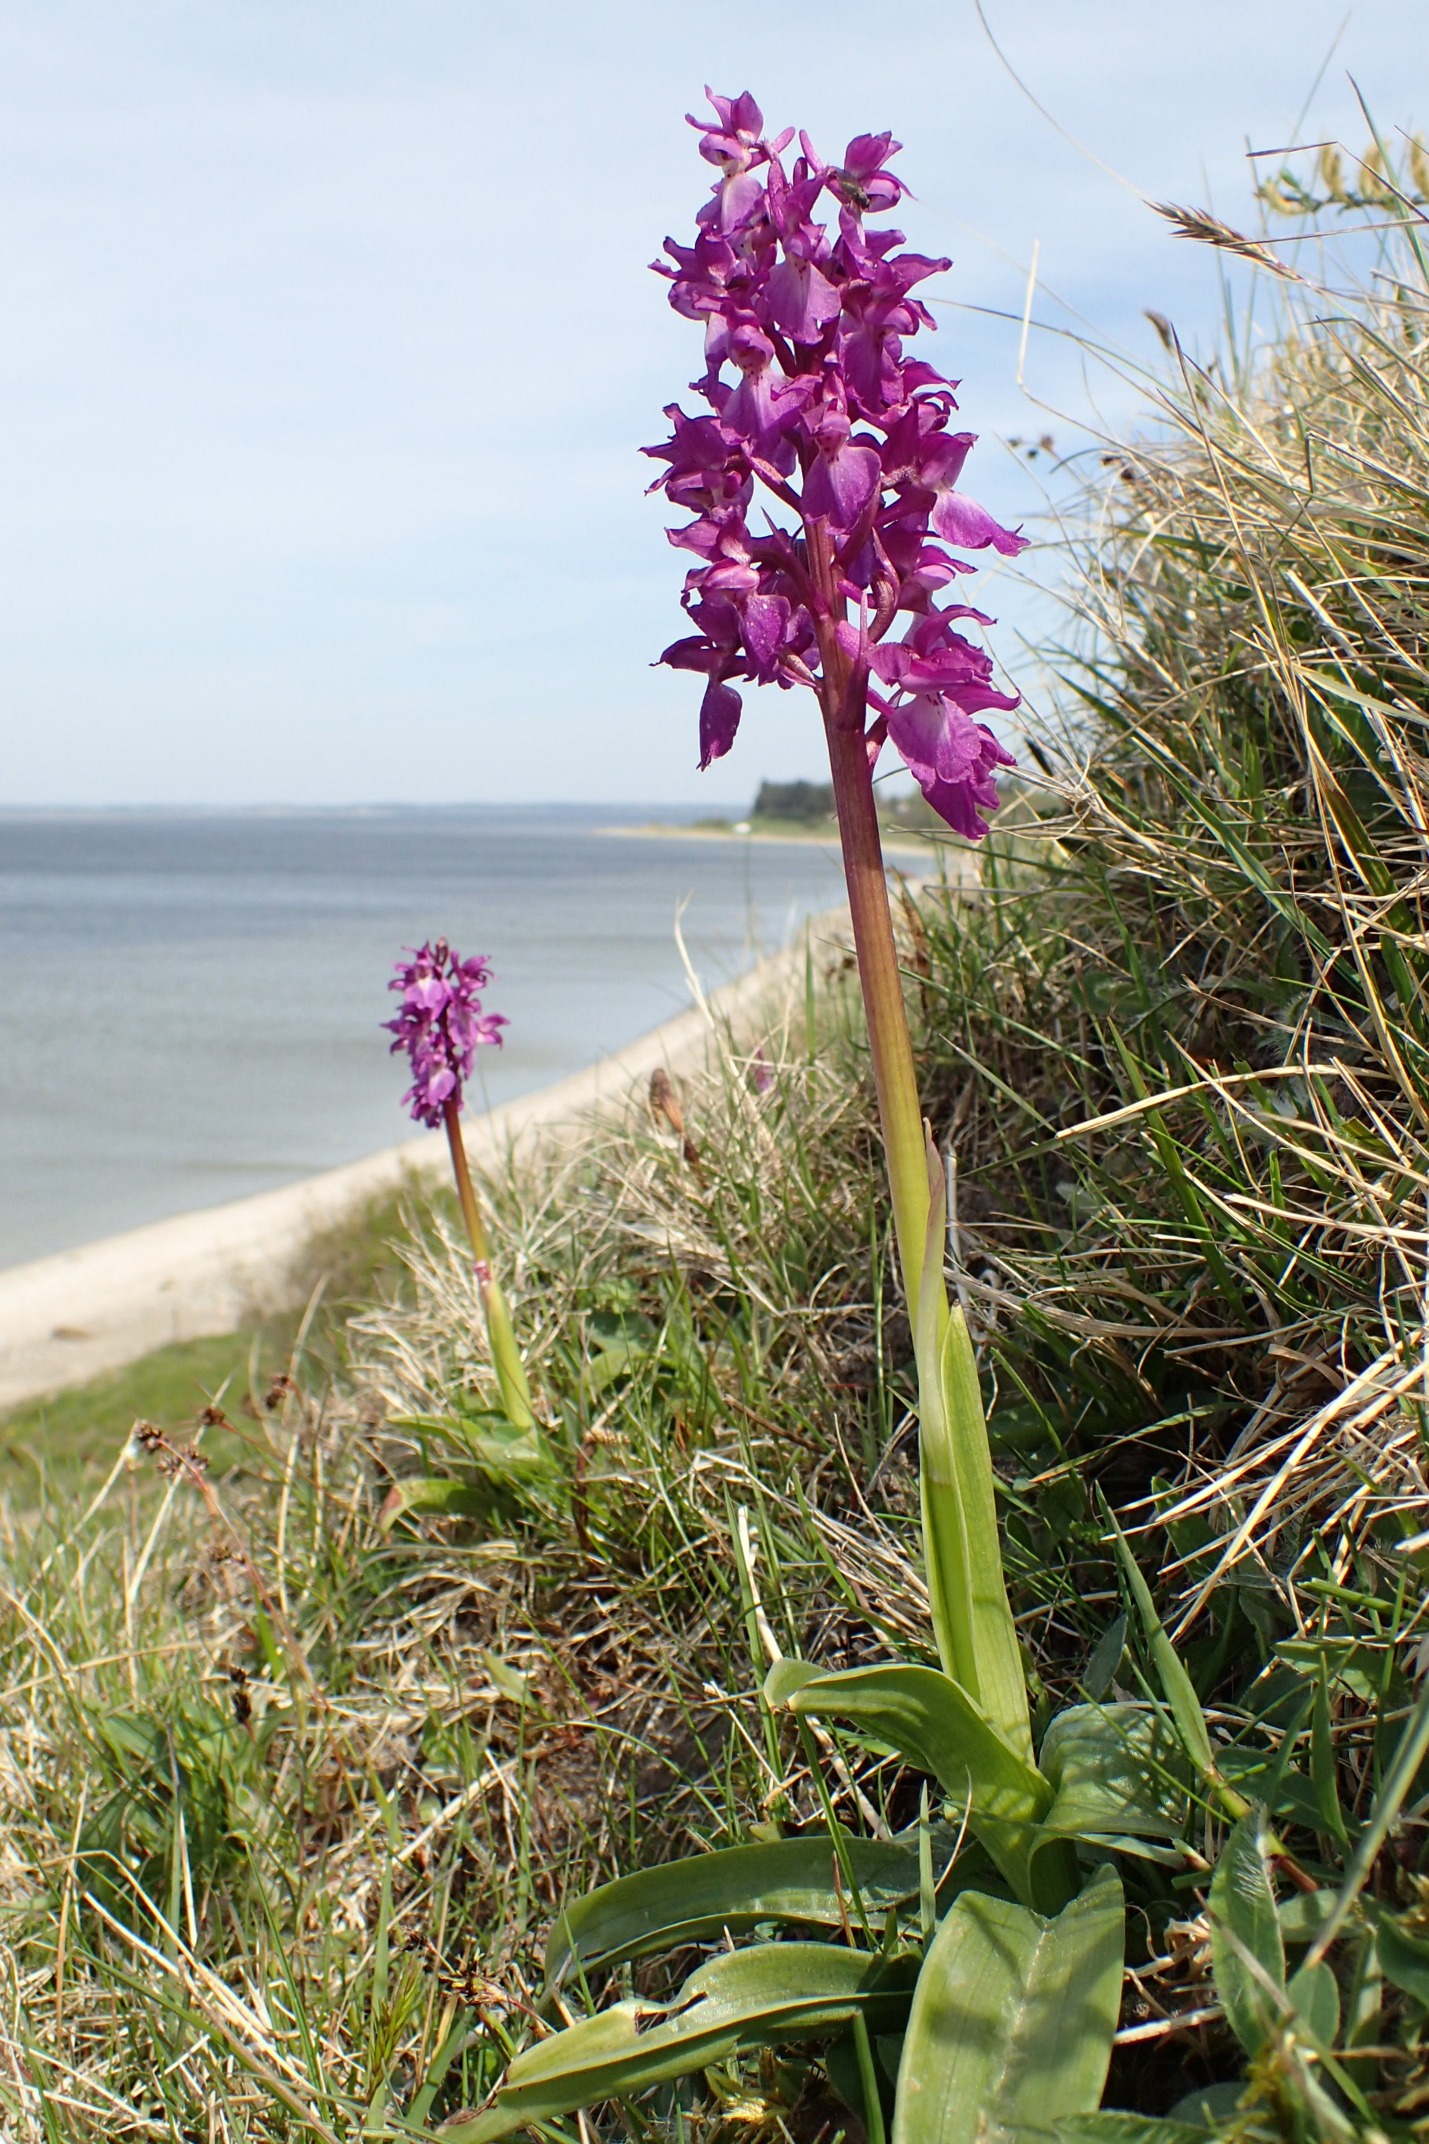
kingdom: Plantae
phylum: Tracheophyta
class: Liliopsida
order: Asparagales
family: Orchidaceae
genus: Orchis
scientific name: Orchis mascula
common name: Tyndakset gøgeurt
